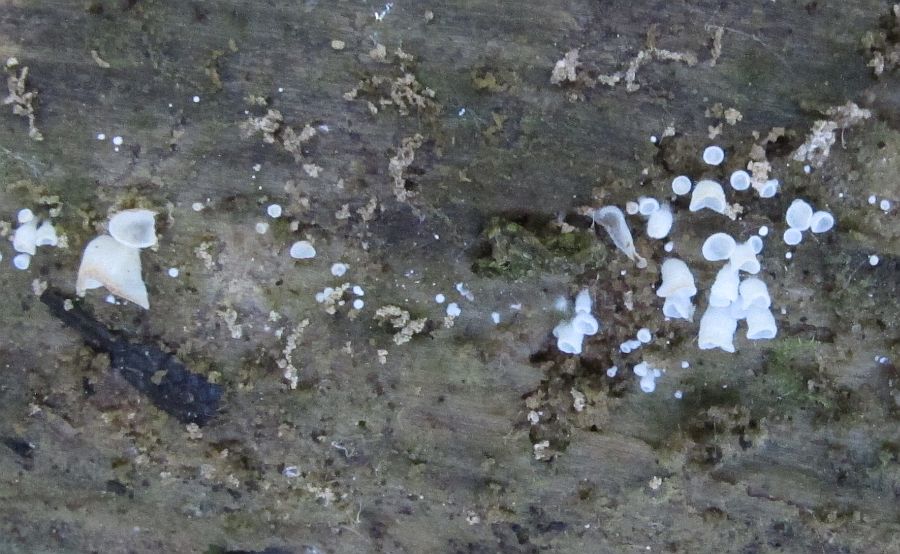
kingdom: Fungi
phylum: Basidiomycota
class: Agaricomycetes
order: Agaricales
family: Marasmiaceae
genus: Calyptella
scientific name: Calyptella cernua
